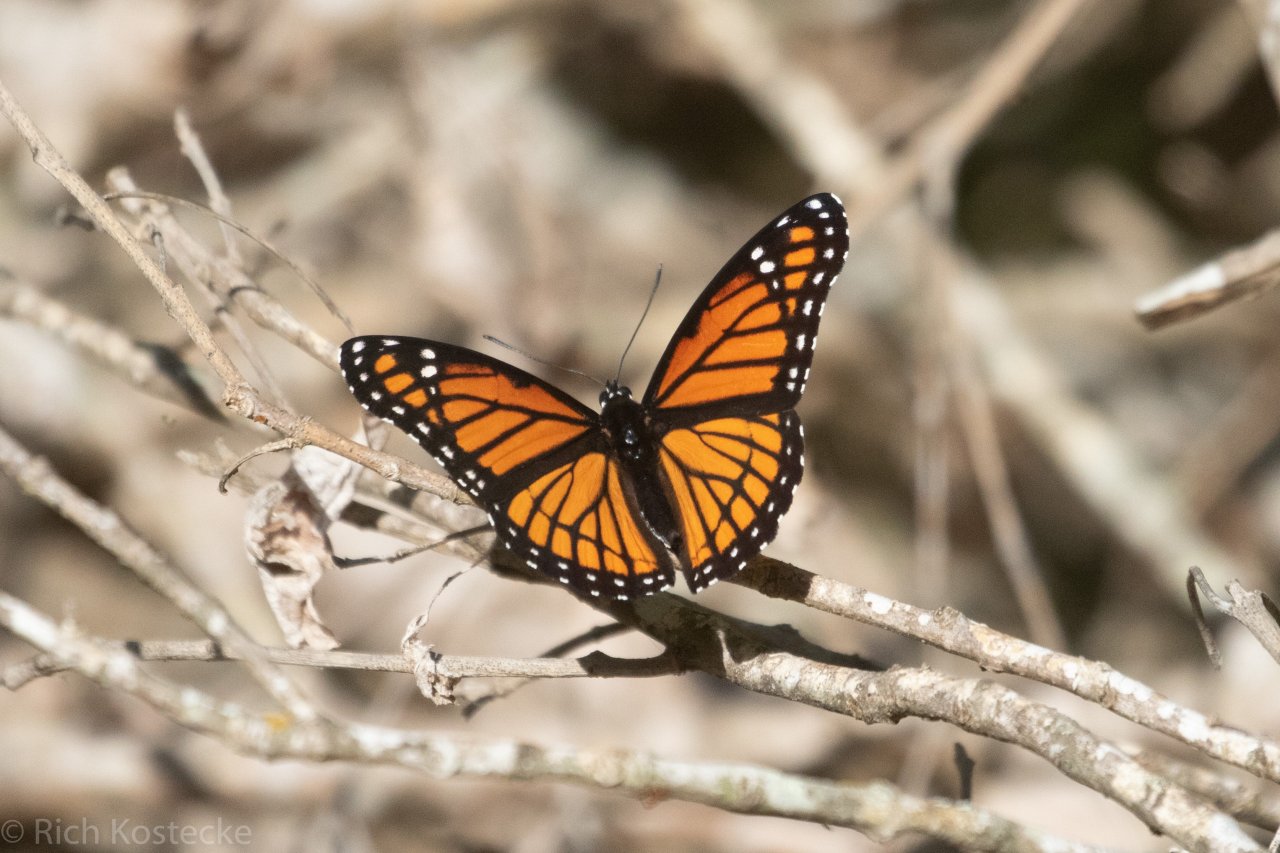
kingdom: Animalia
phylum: Arthropoda
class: Insecta
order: Lepidoptera
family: Nymphalidae
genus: Limenitis
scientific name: Limenitis archippus
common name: Viceroy
